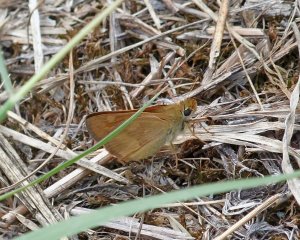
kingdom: Animalia
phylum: Arthropoda
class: Insecta
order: Lepidoptera
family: Hesperiidae
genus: Ochlodes
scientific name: Ochlodes sylvanoides
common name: Woodland Skipper
